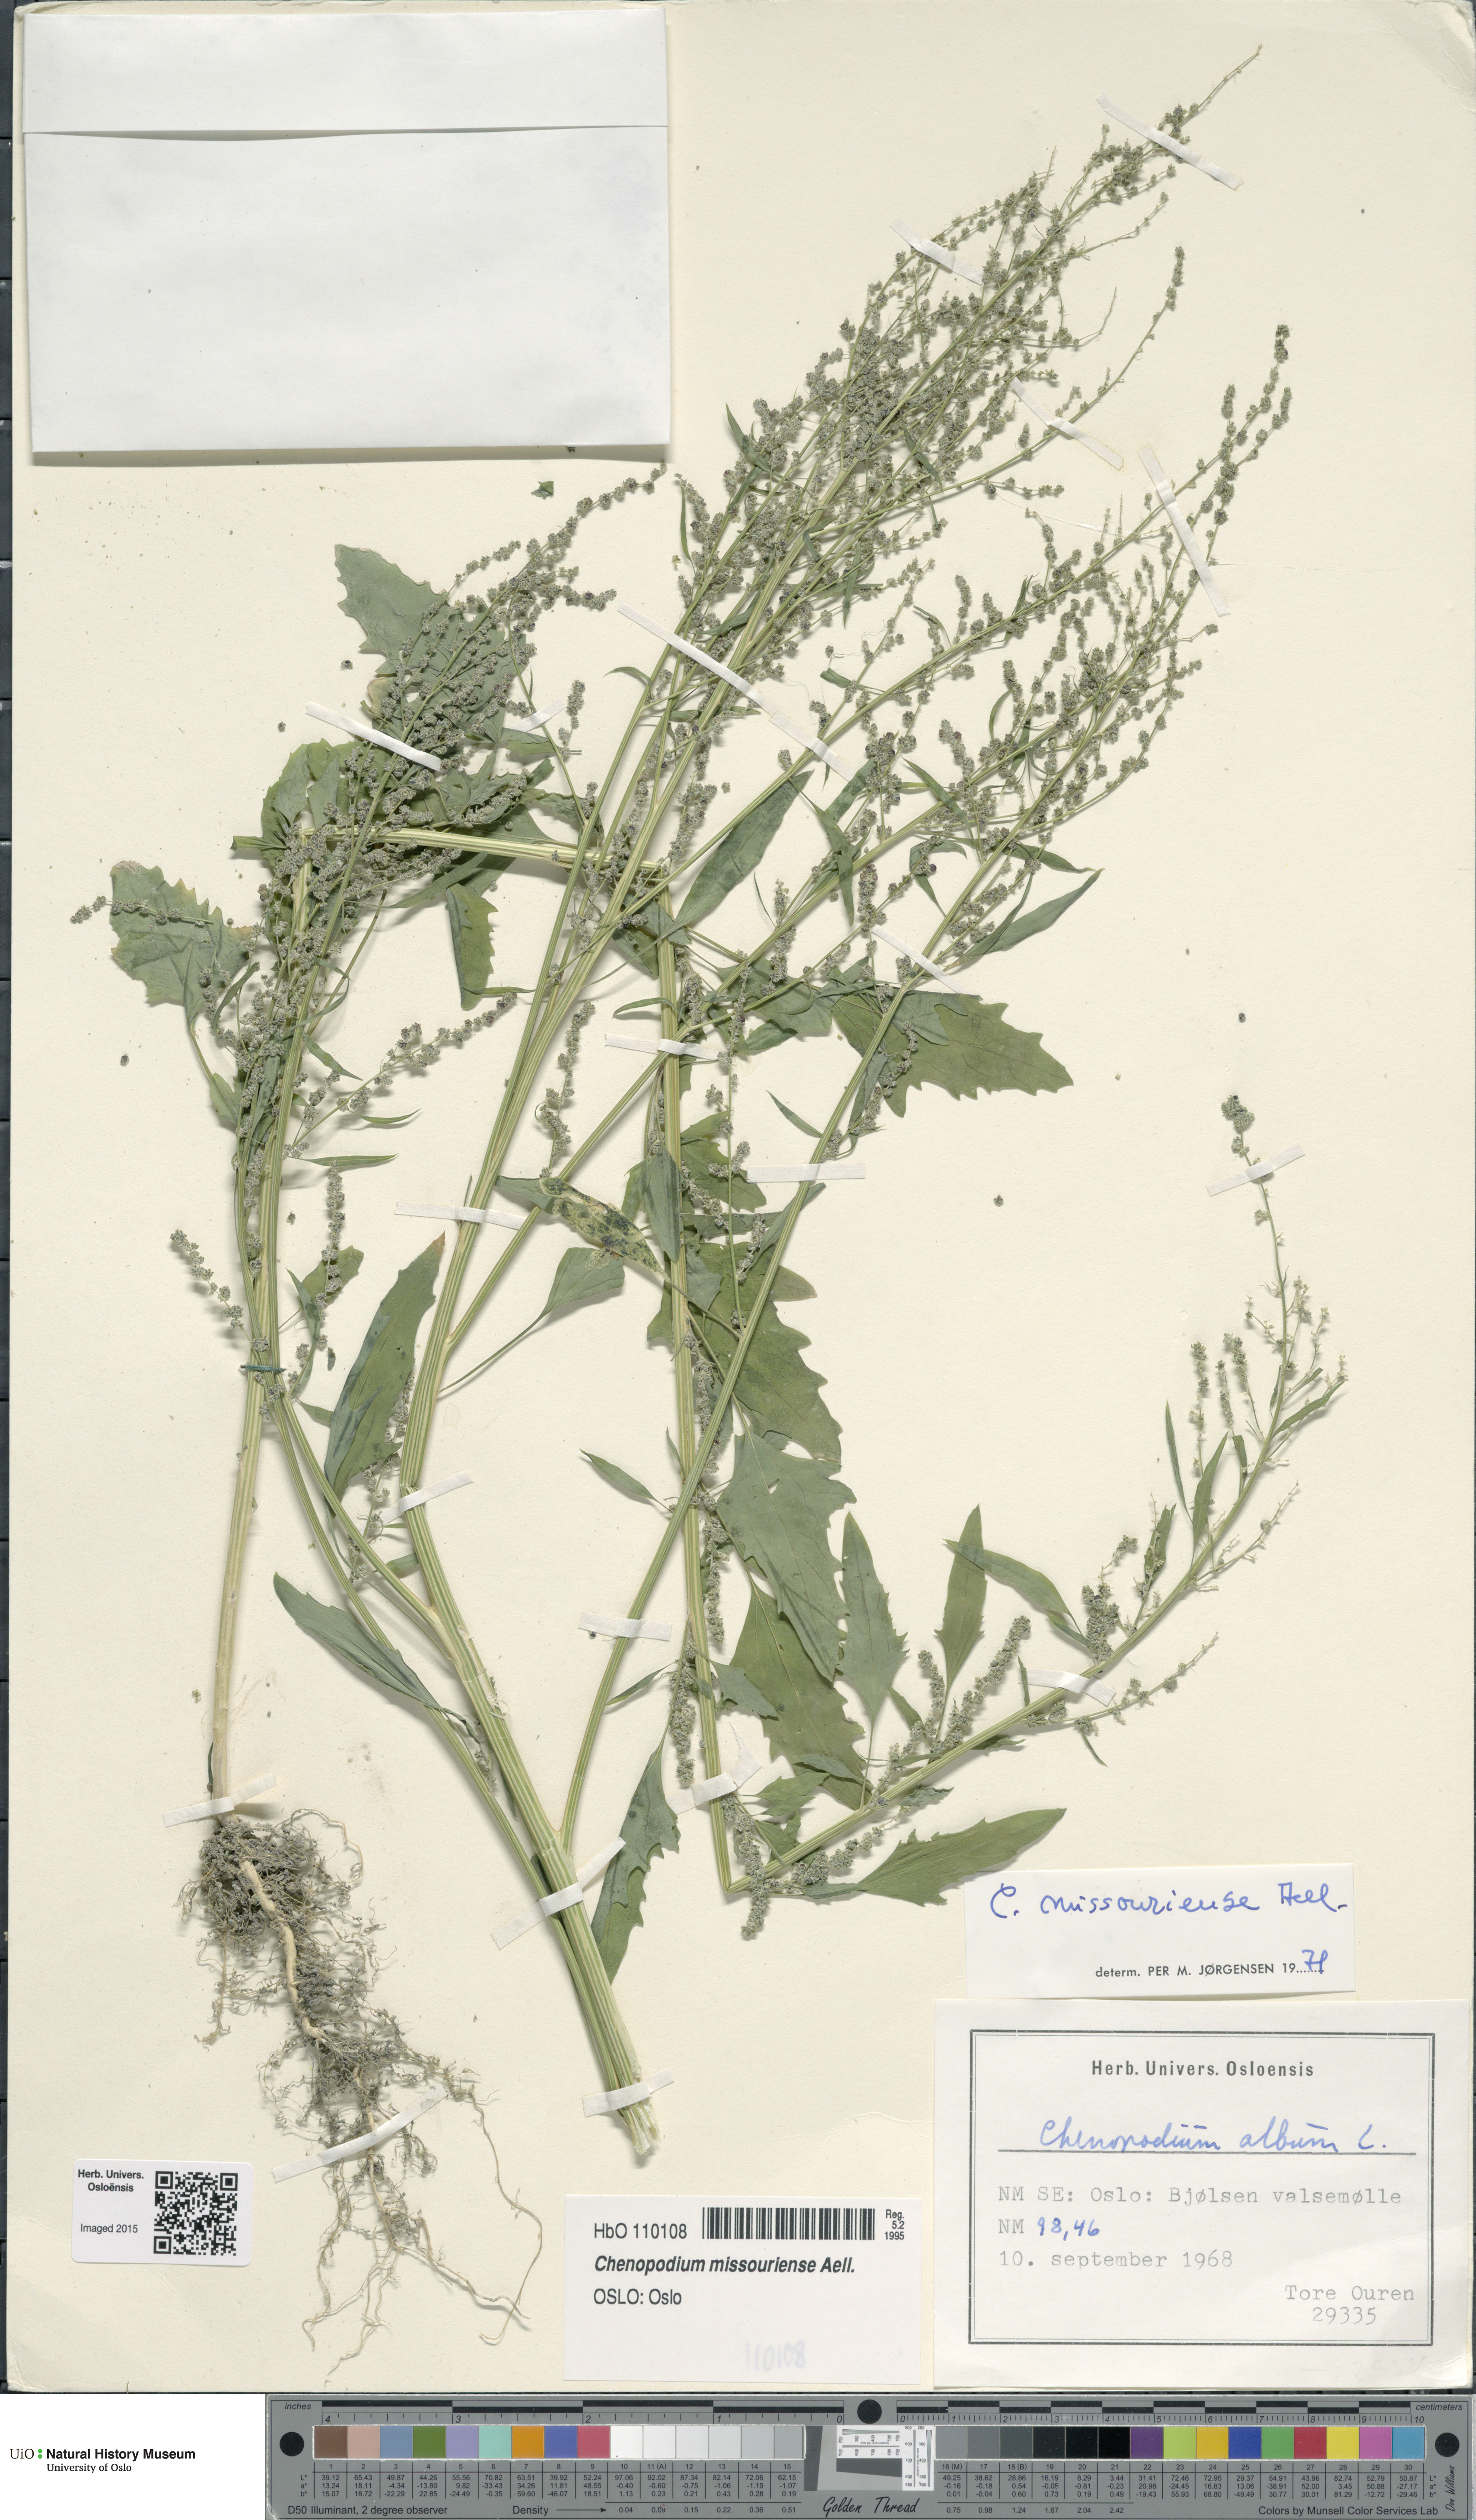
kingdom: Plantae
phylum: Tracheophyta
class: Magnoliopsida
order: Caryophyllales
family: Amaranthaceae
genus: Chenopodium
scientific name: Chenopodium album
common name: Fat-hen
